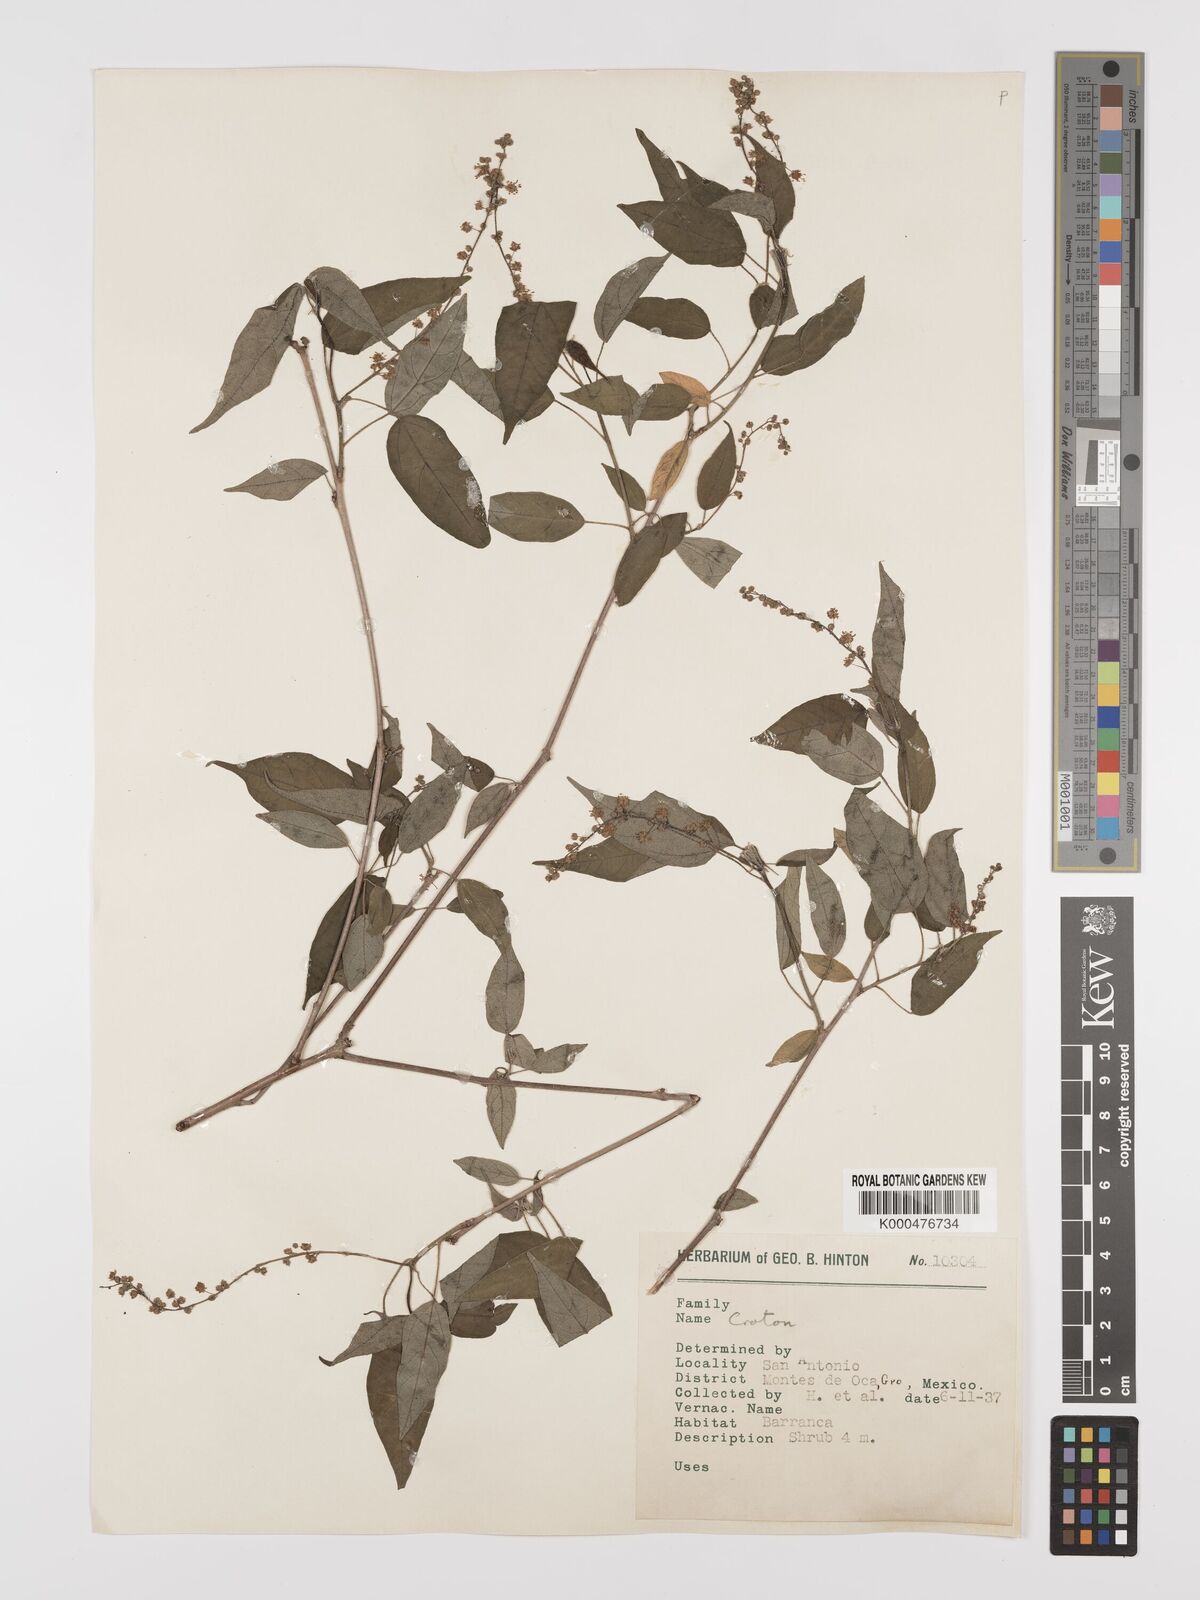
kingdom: Plantae
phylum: Tracheophyta
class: Magnoliopsida
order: Malpighiales
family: Euphorbiaceae
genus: Croton
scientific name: Croton
